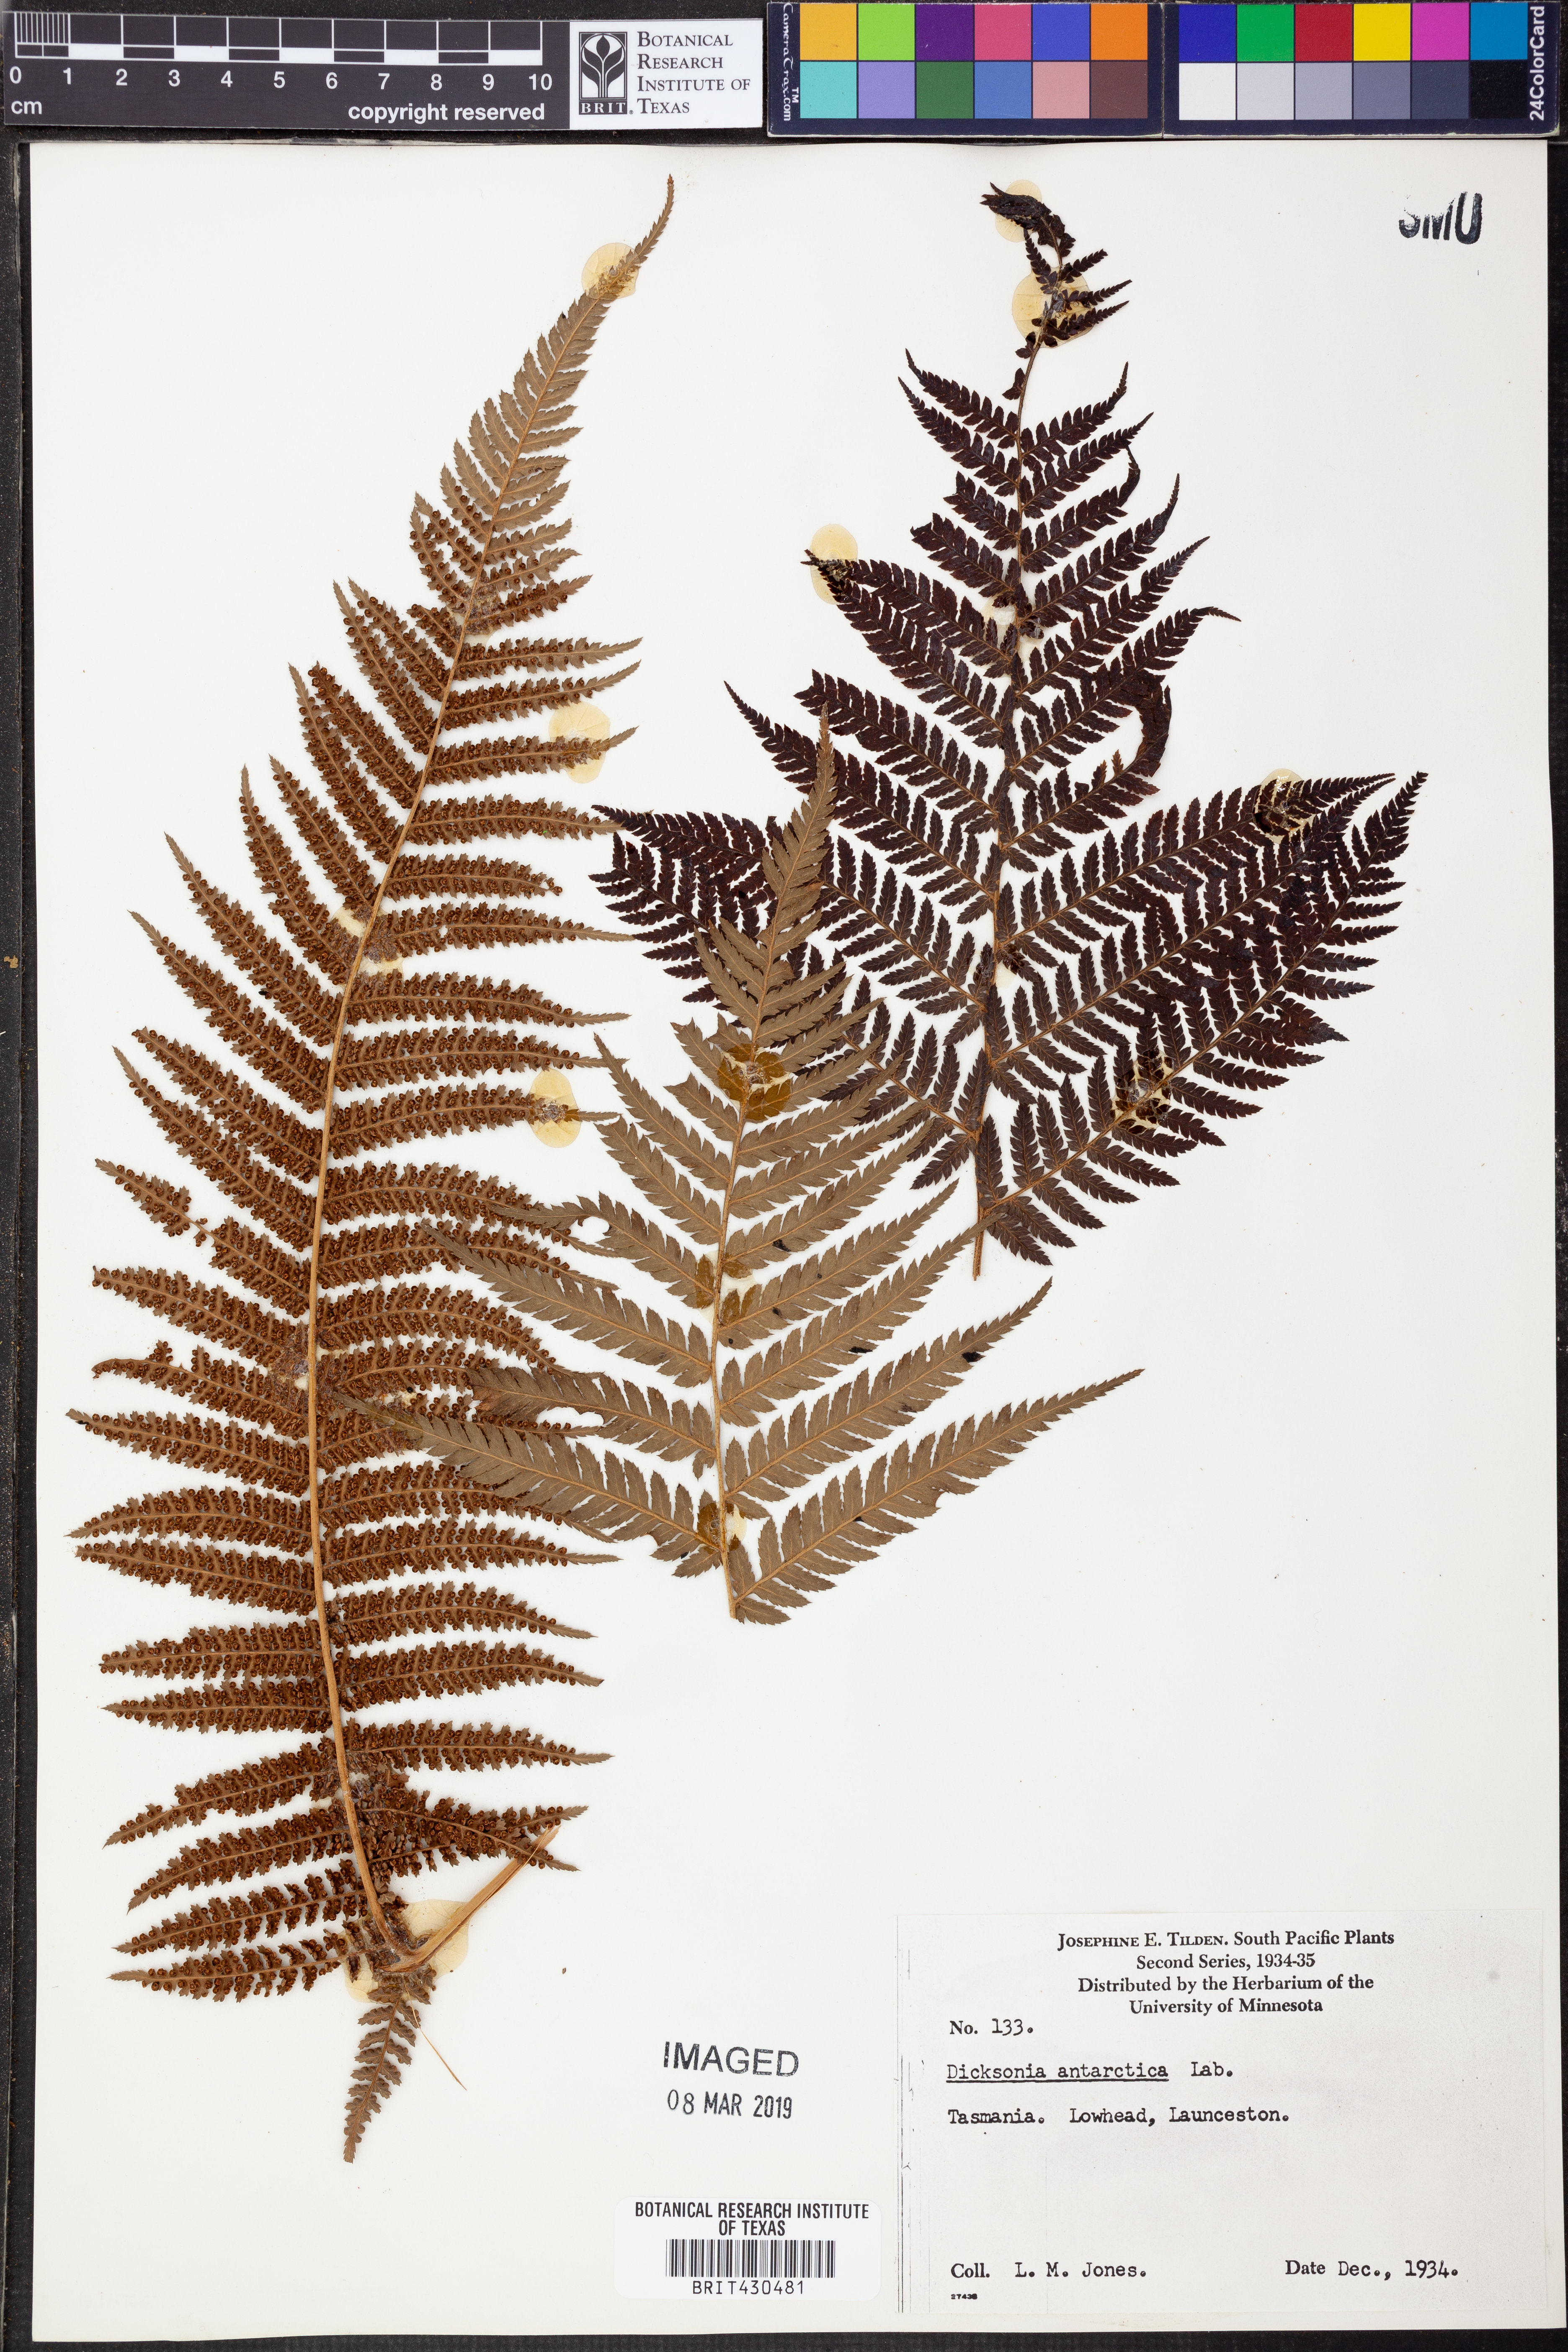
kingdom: Plantae
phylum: Tracheophyta
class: Polypodiopsida
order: Cyatheales
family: Dicksoniaceae
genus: Dicksonia
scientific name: Dicksonia antarctica
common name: Australian treefern
